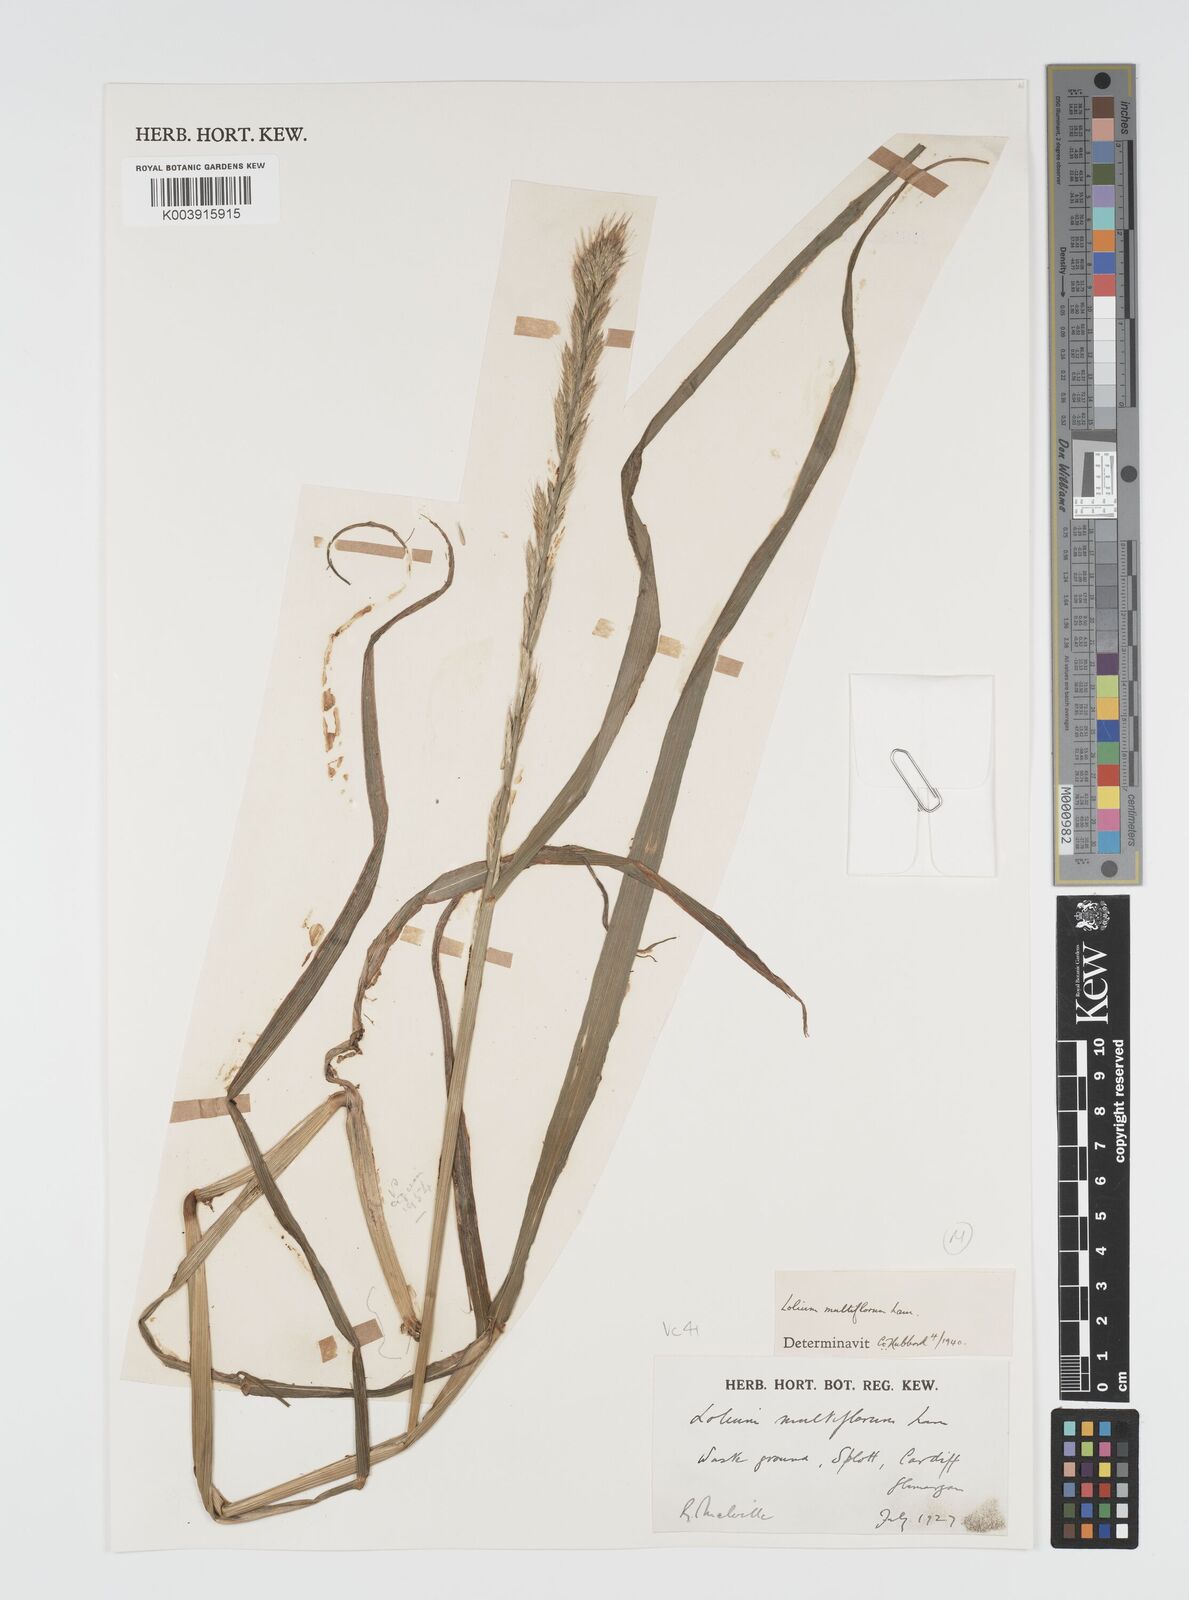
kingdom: Plantae
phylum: Tracheophyta
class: Liliopsida
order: Poales
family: Poaceae
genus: Lolium
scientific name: Lolium multiflorum
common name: Annual ryegrass
